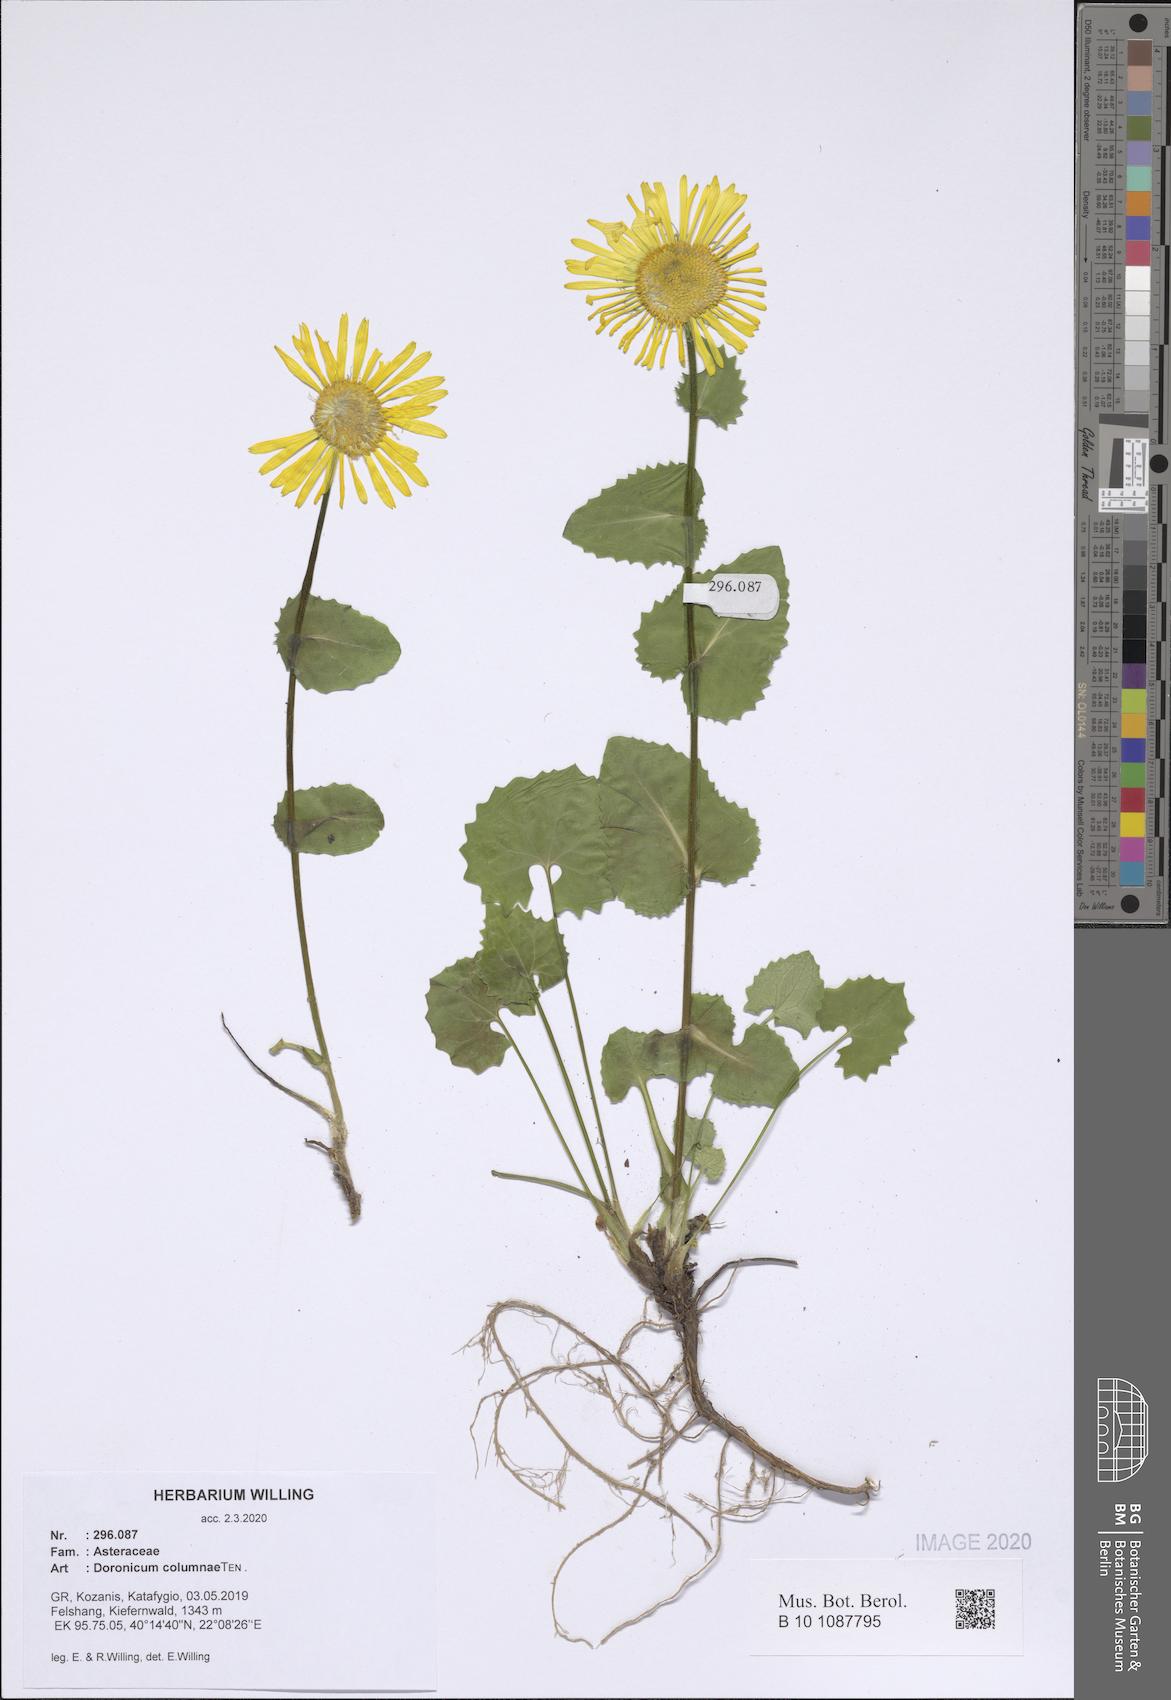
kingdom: Plantae
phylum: Tracheophyta
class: Magnoliopsida
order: Asterales
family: Asteraceae
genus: Doronicum
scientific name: Doronicum columnae
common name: Eastern leopard's-bane
